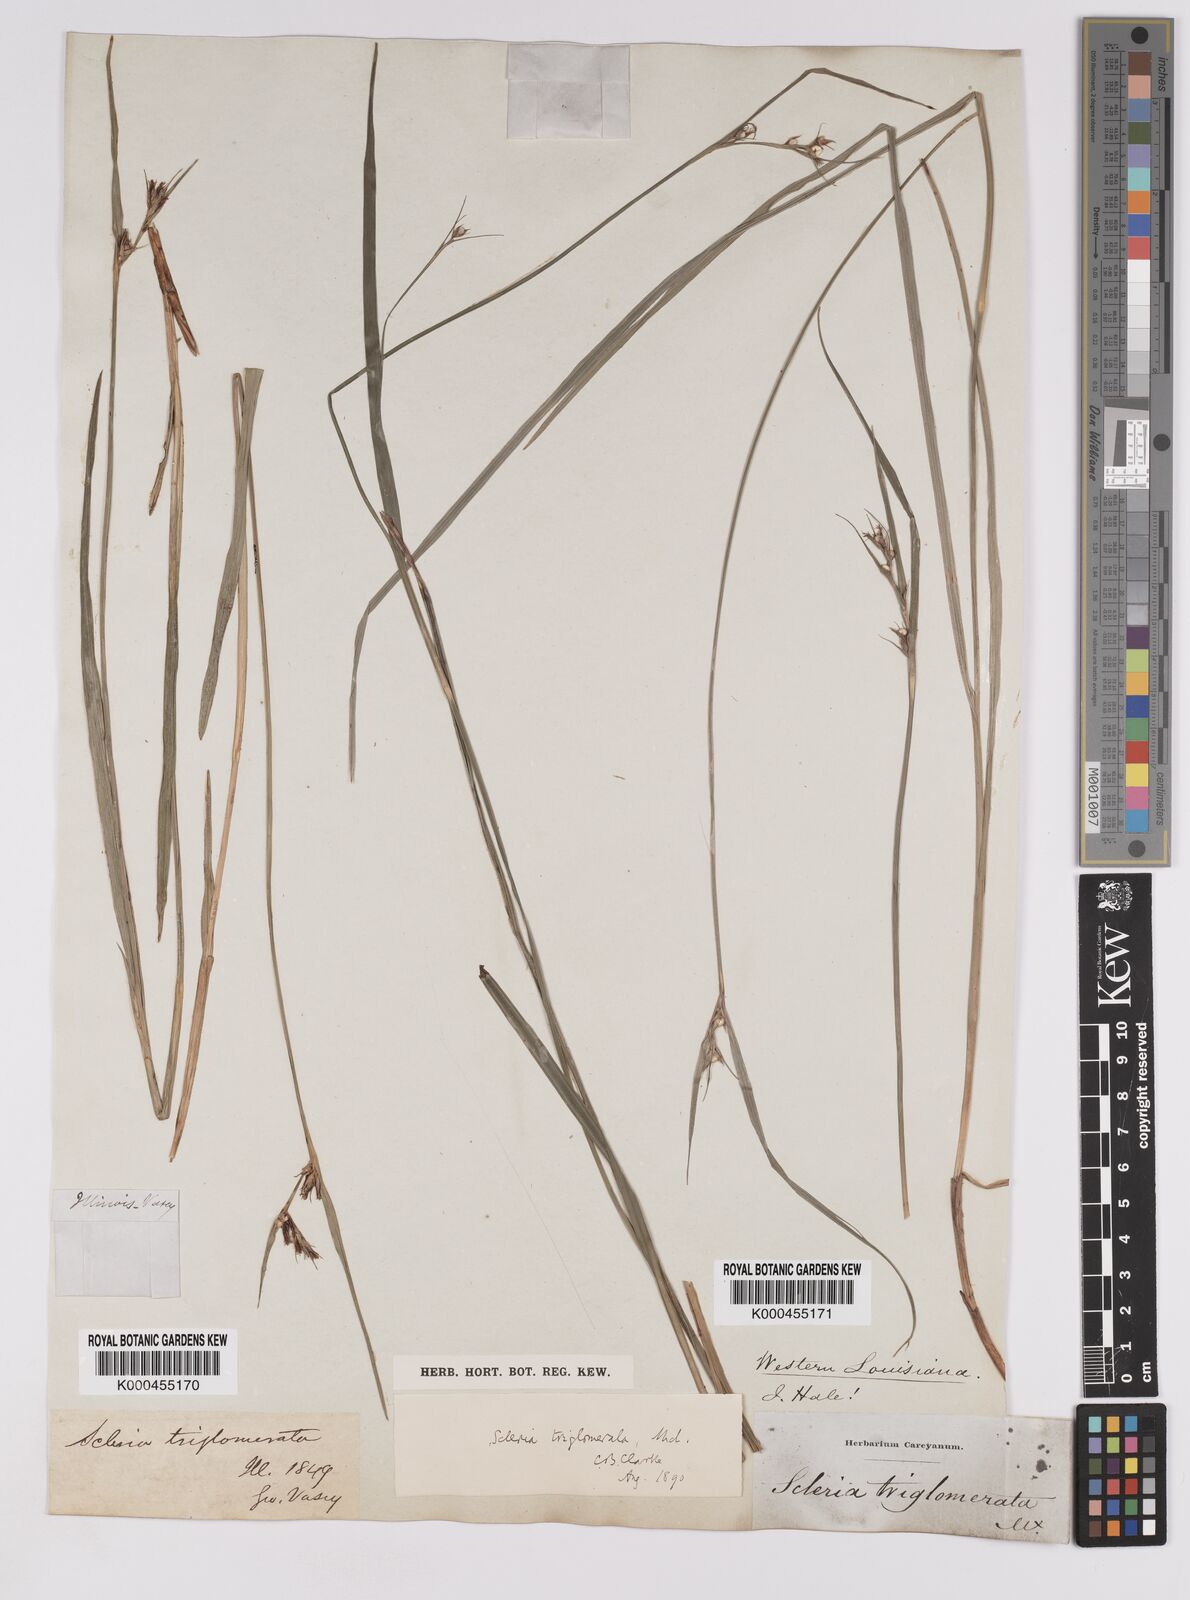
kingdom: Plantae
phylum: Tracheophyta
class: Liliopsida
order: Poales
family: Cyperaceae
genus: Scleria
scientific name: Scleria triglomerata
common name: Whip nutrush
